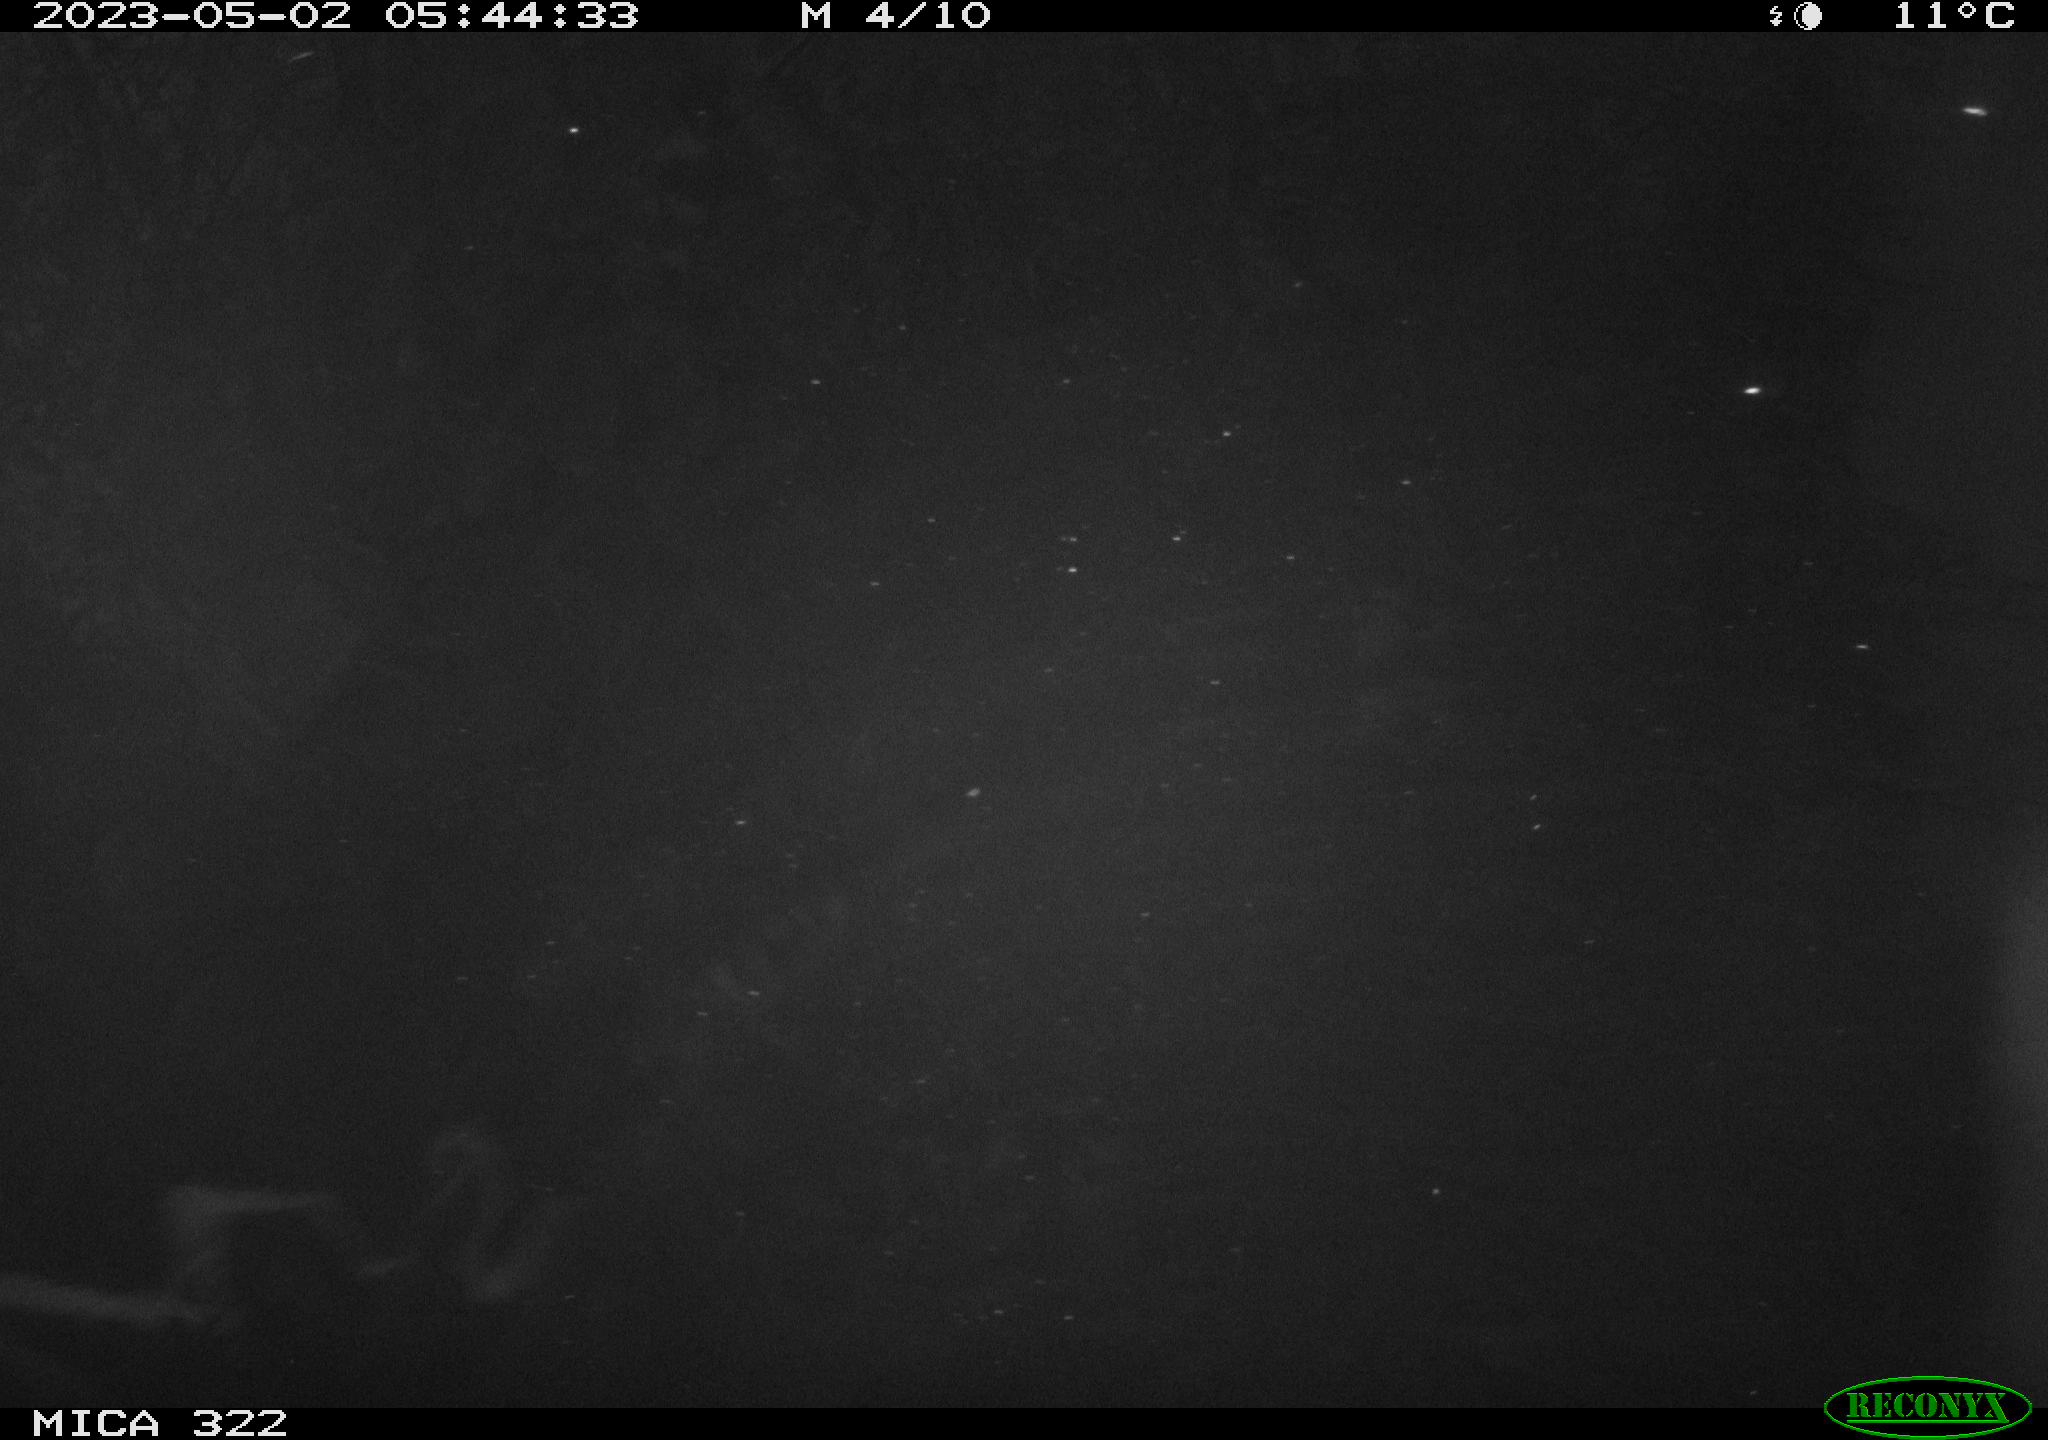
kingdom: Animalia
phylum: Chordata
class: Mammalia
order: Rodentia
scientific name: Rodentia
